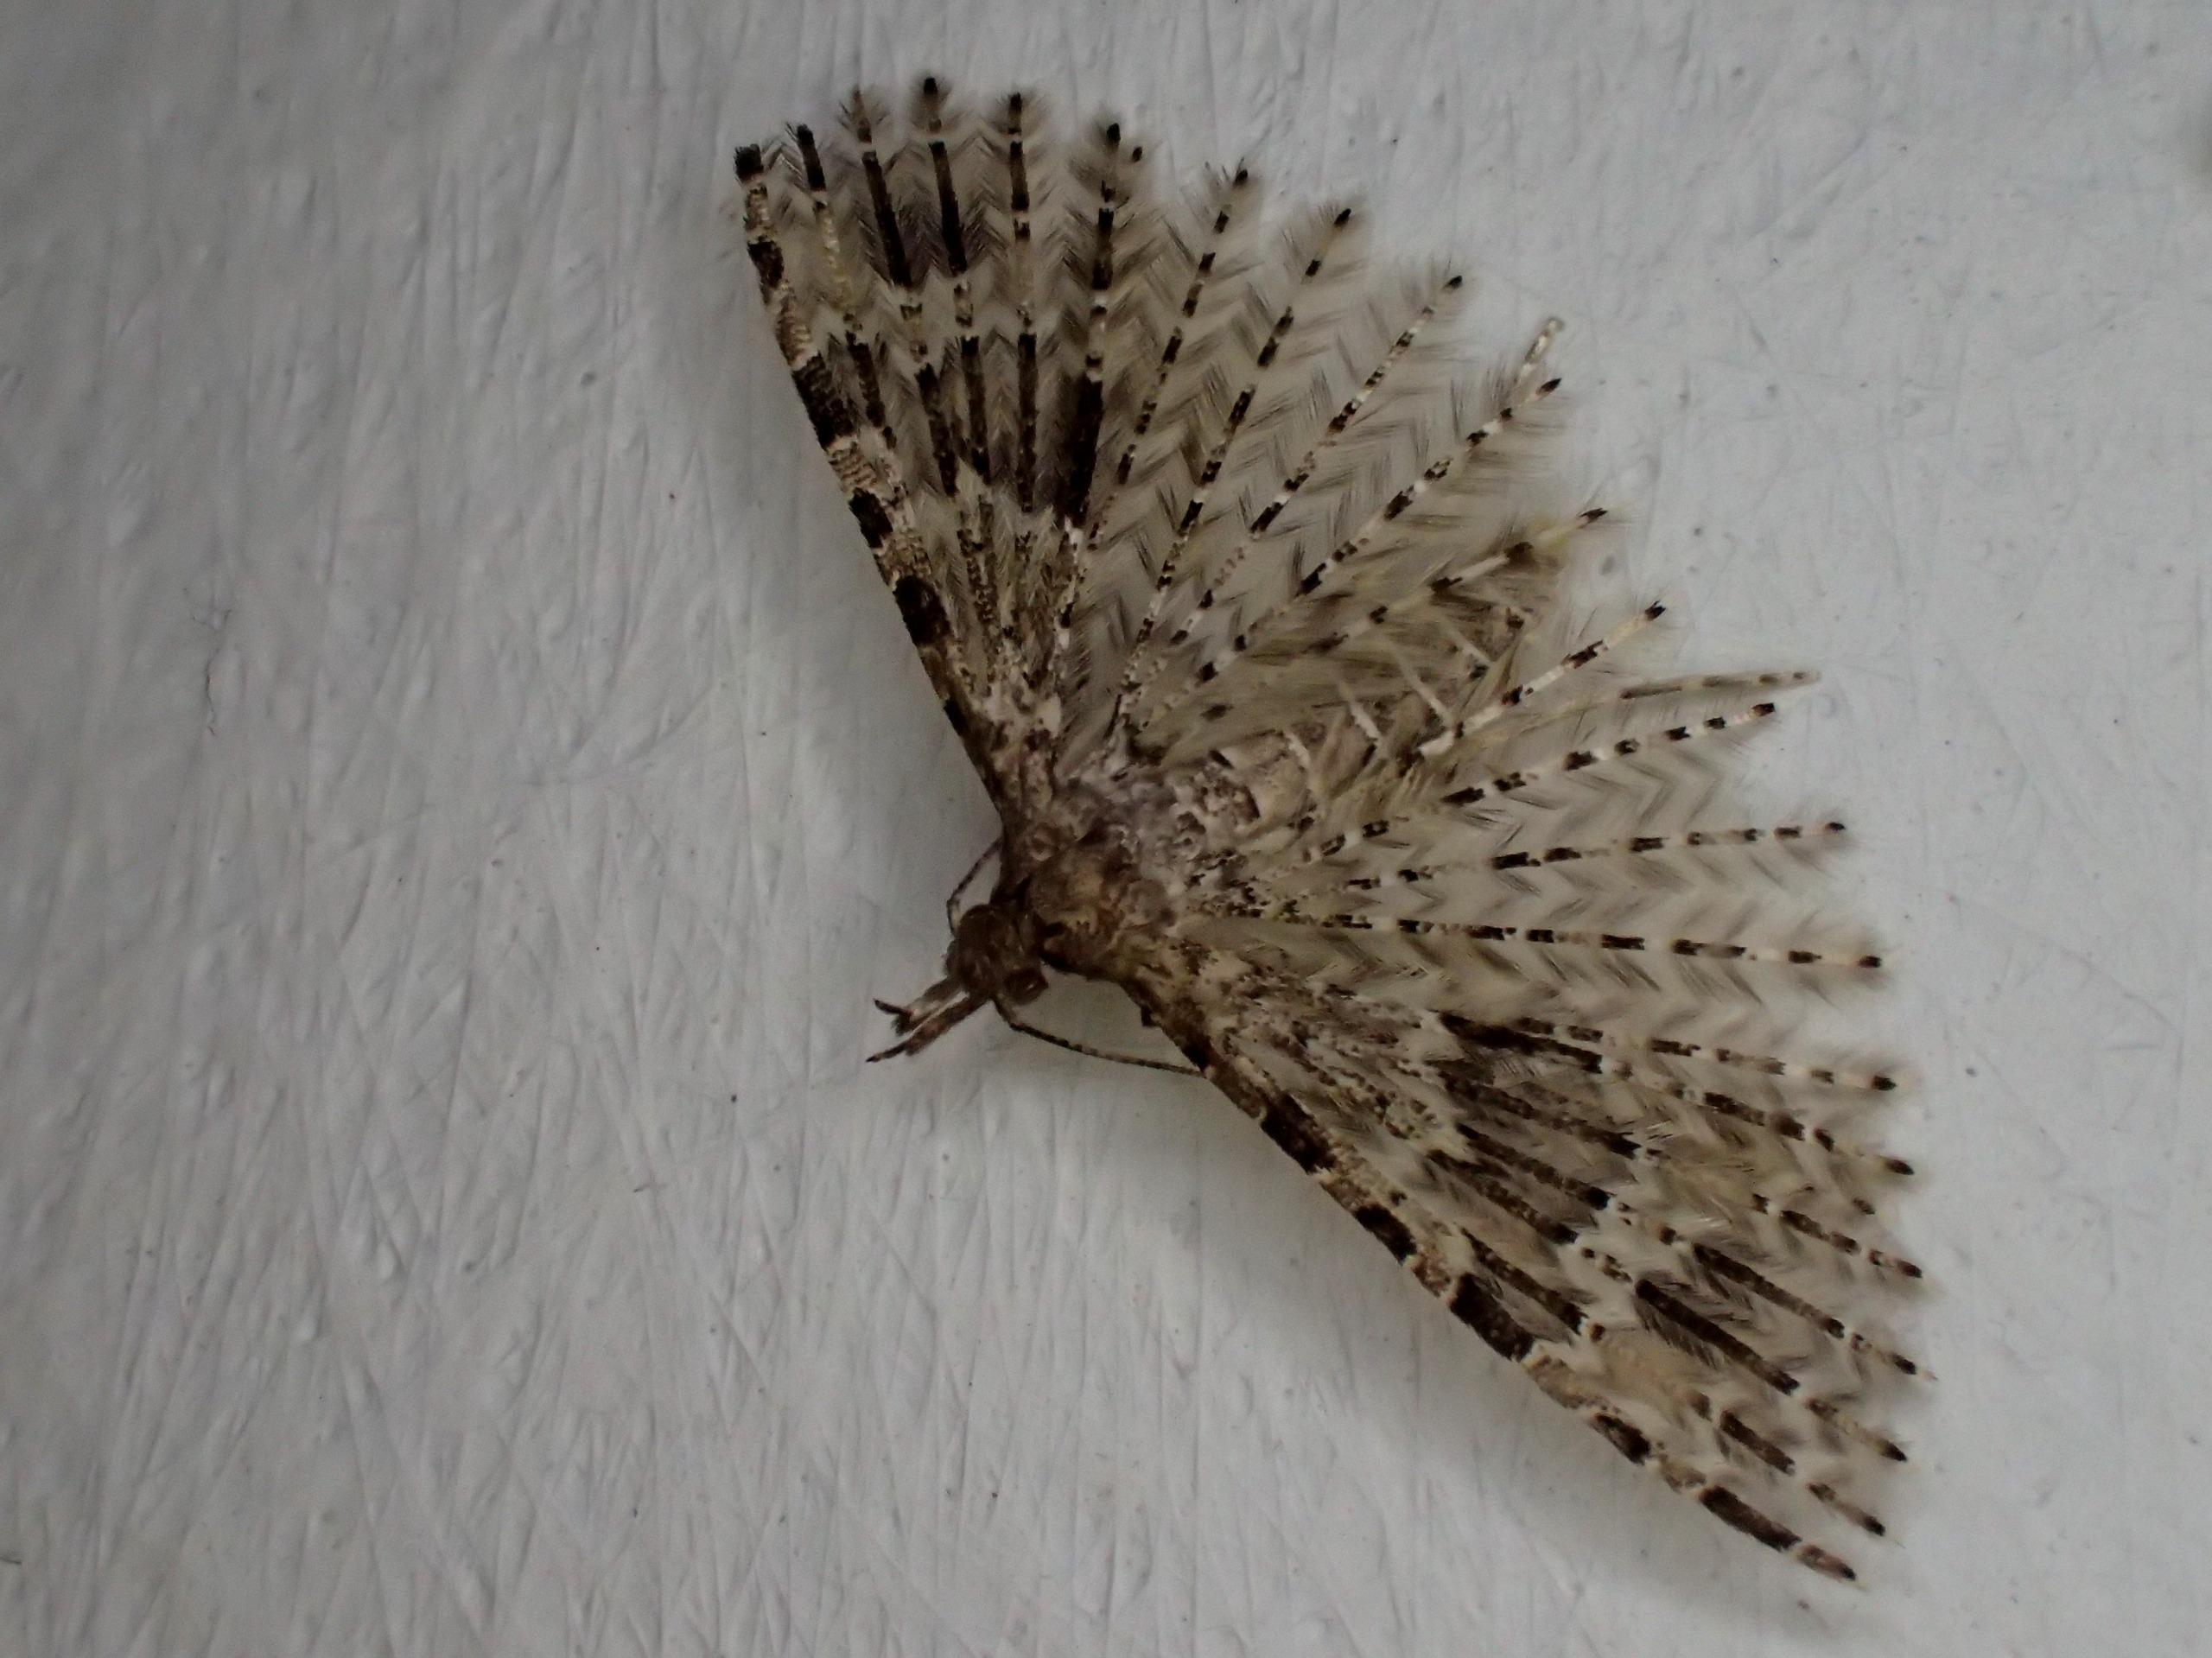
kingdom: Animalia
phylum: Arthropoda
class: Insecta
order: Lepidoptera
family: Alucitidae
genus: Alucita
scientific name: Alucita hexadactyla
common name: Kaprifoliefjermøl
